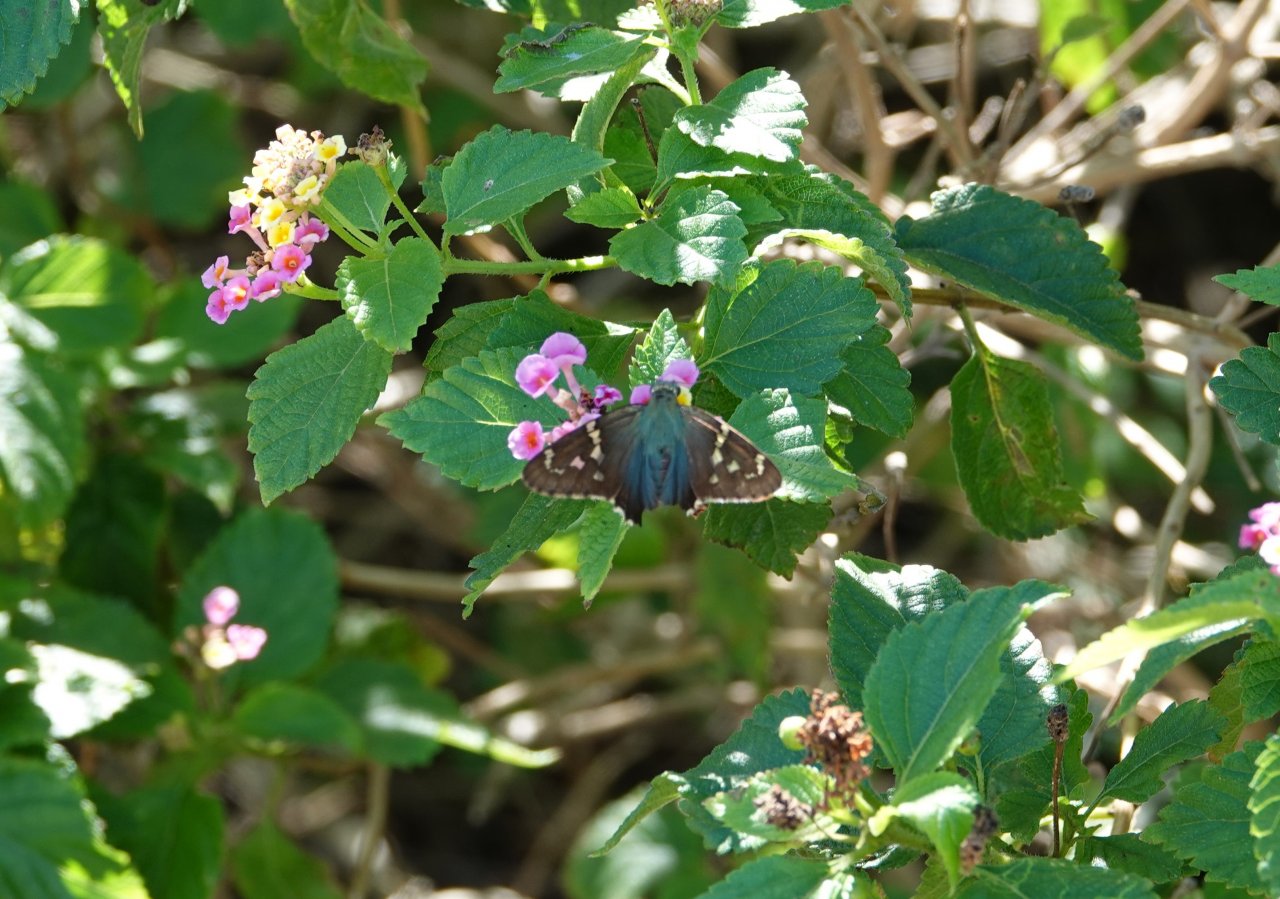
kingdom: Animalia
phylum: Arthropoda
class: Insecta
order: Lepidoptera
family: Hesperiidae
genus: Urbanus
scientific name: Urbanus proteus
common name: Long-tailed Skipper
